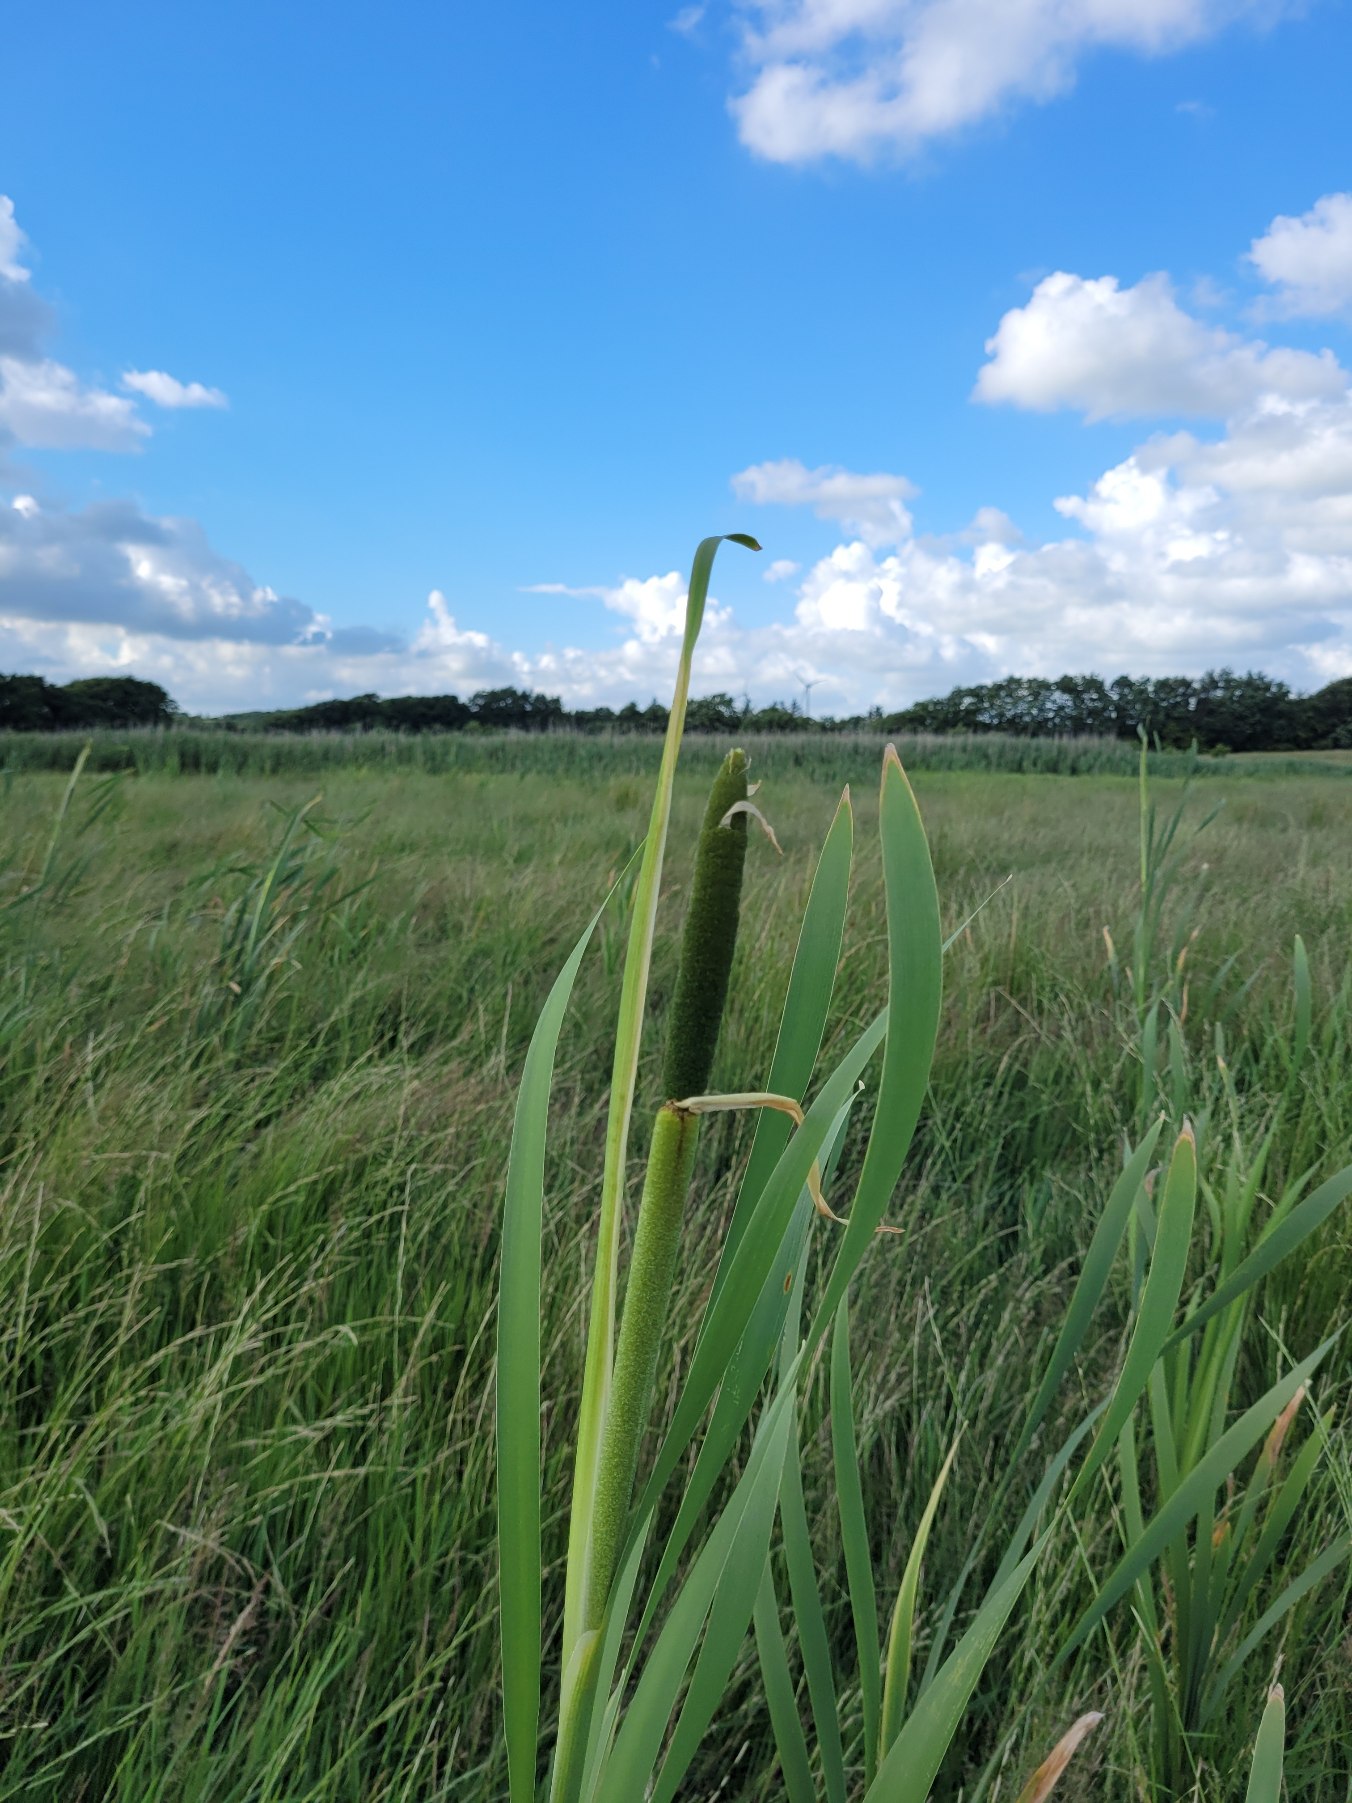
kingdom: Plantae
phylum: Tracheophyta
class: Liliopsida
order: Poales
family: Typhaceae
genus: Typha
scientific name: Typha latifolia
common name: Bredbladet dunhammer
